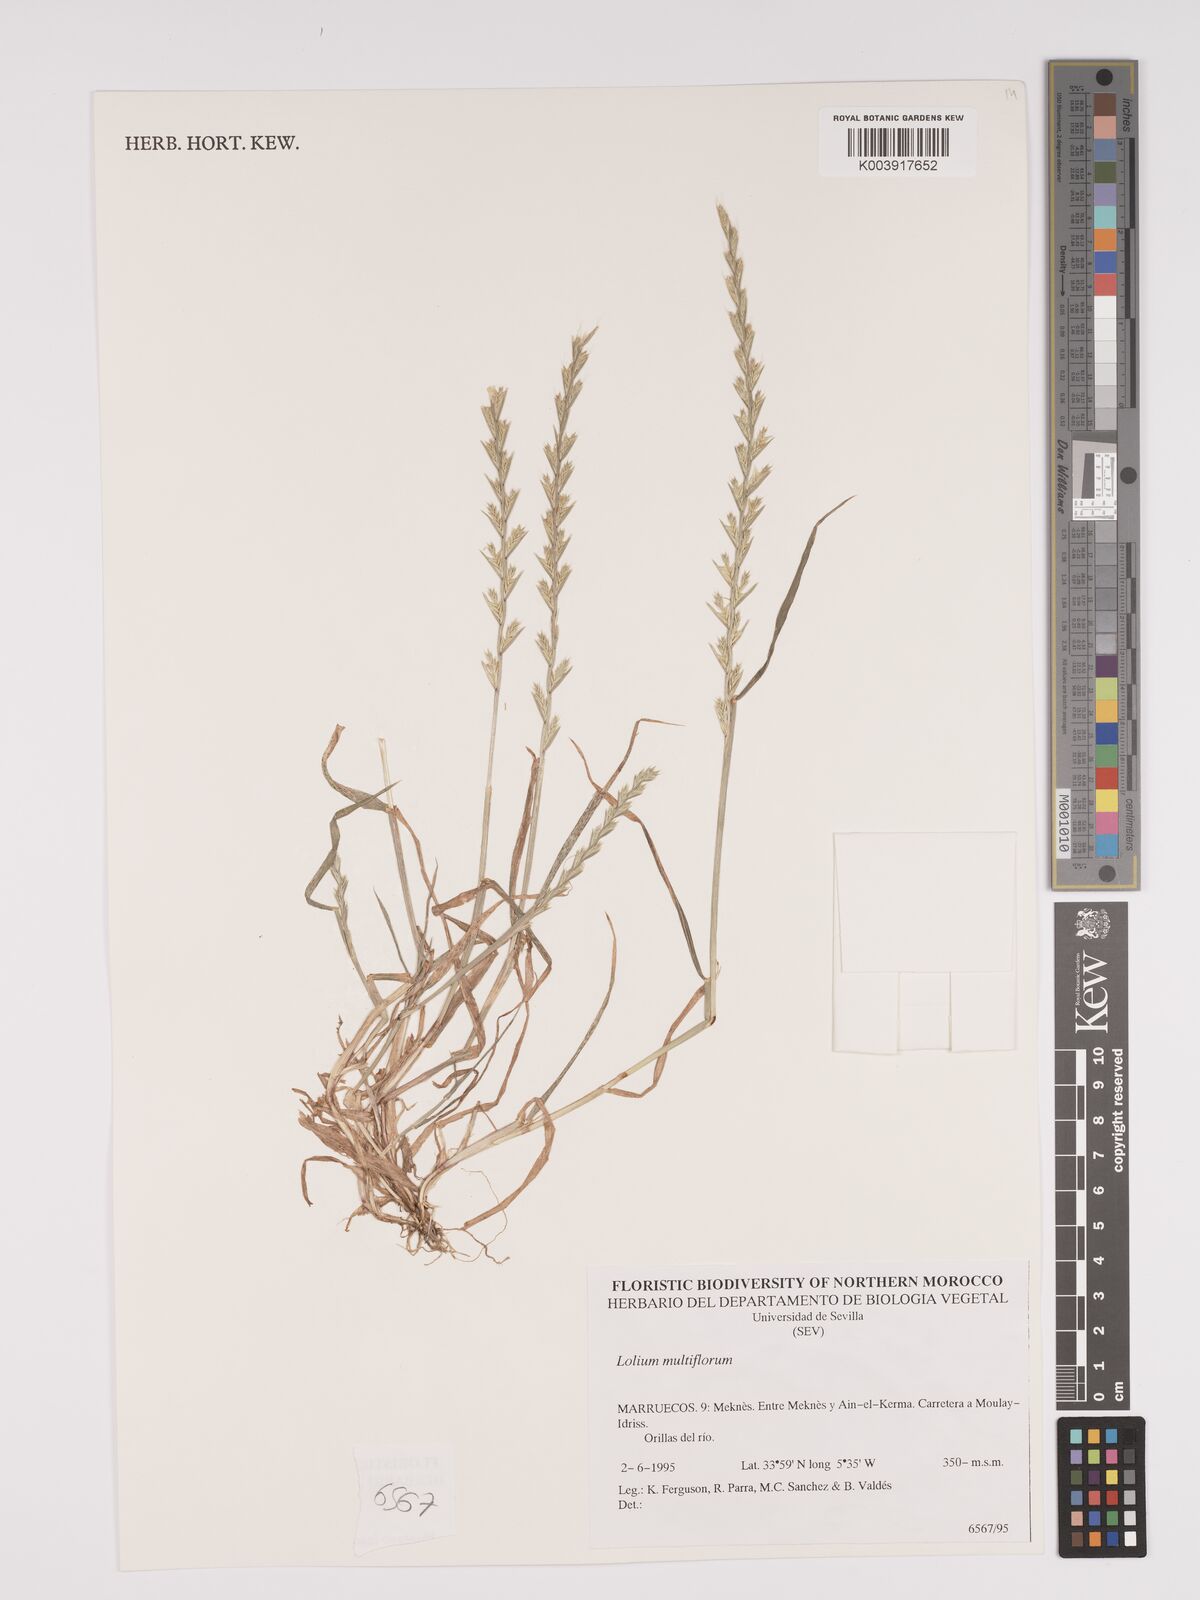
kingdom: Plantae
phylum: Tracheophyta
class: Liliopsida
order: Poales
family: Poaceae
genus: Lolium
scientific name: Lolium multiflorum
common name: Annual ryegrass
